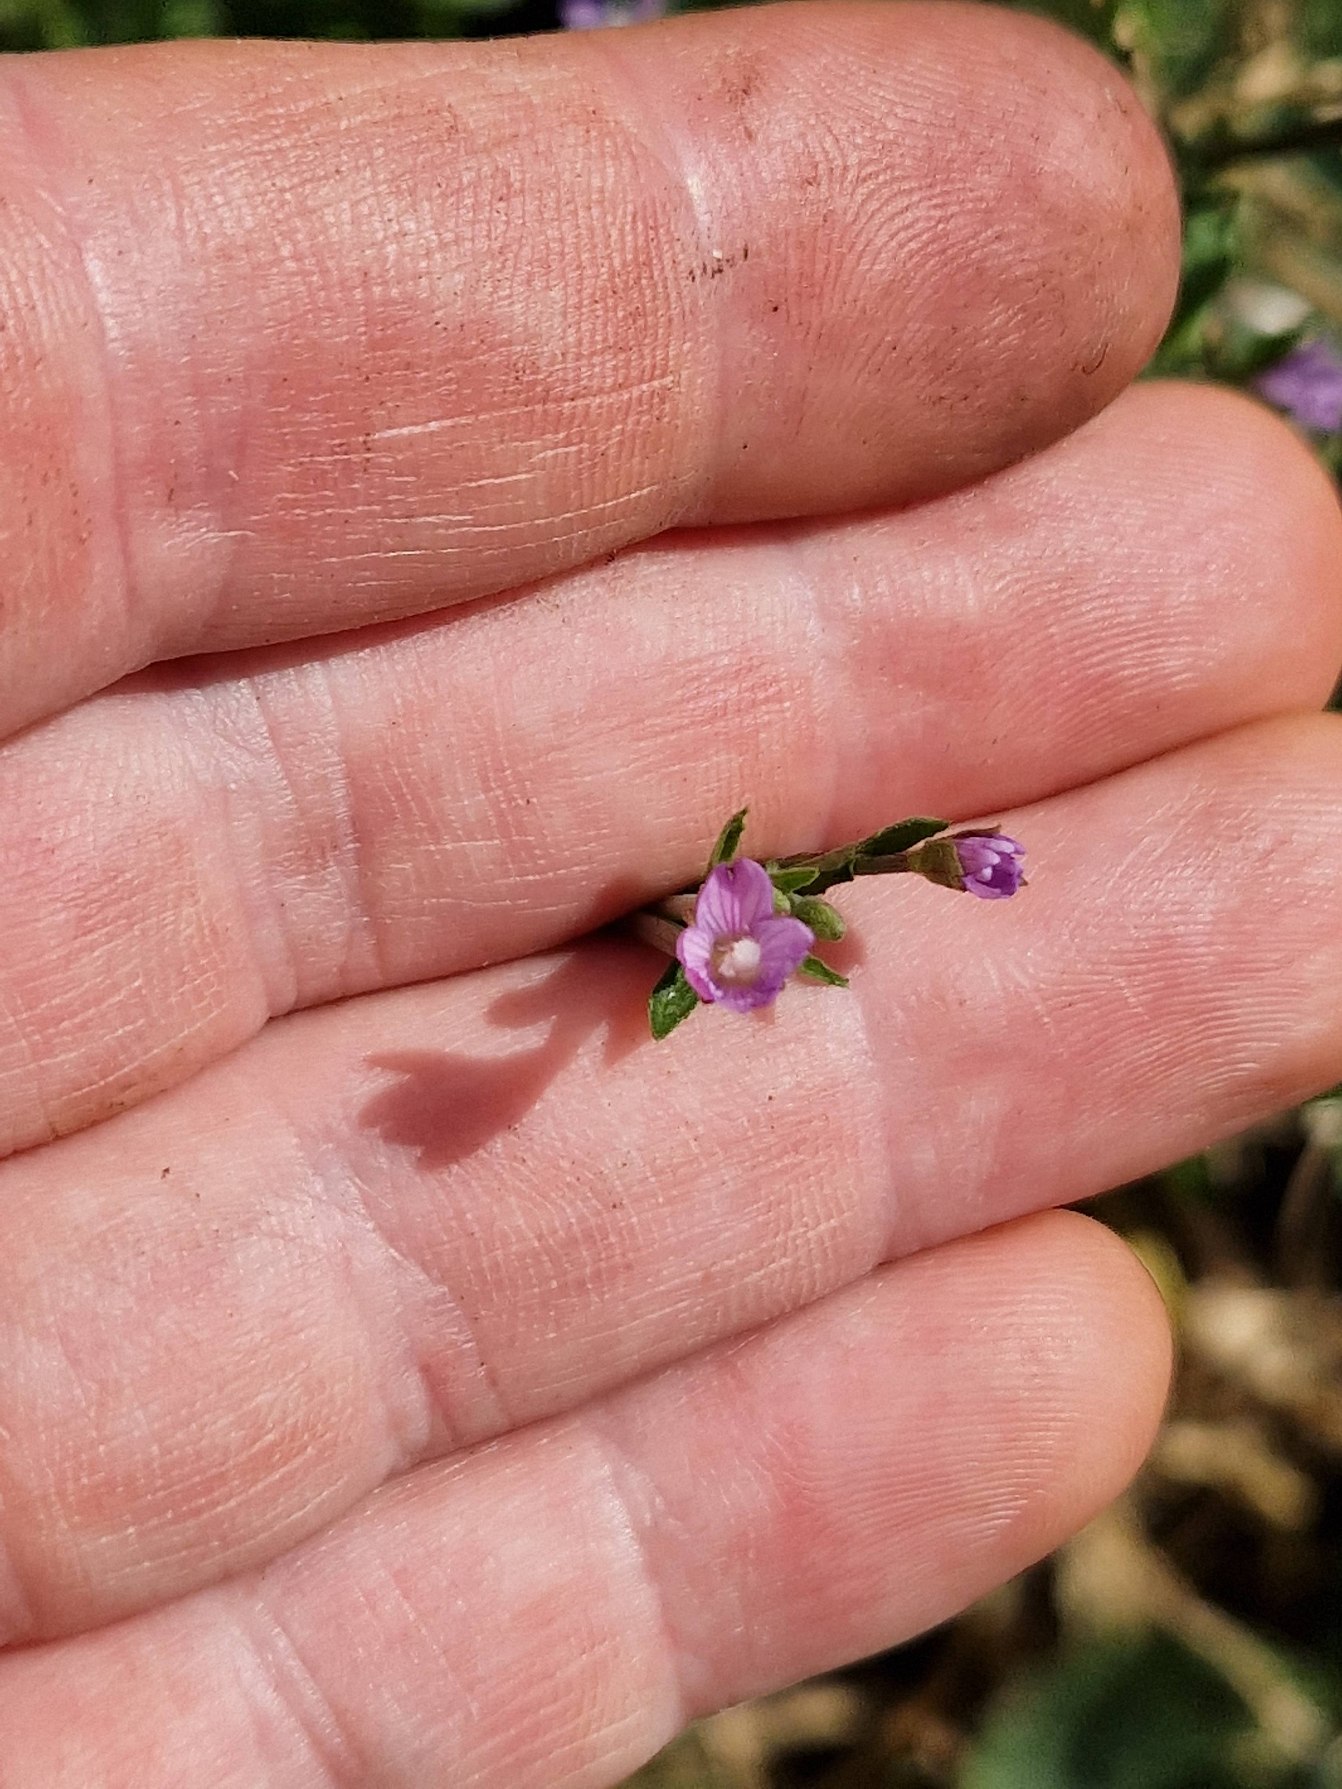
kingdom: Plantae
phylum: Tracheophyta
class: Magnoliopsida
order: Myrtales
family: Onagraceae
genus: Epilobium
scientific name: Epilobium
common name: Dueurtslægten
